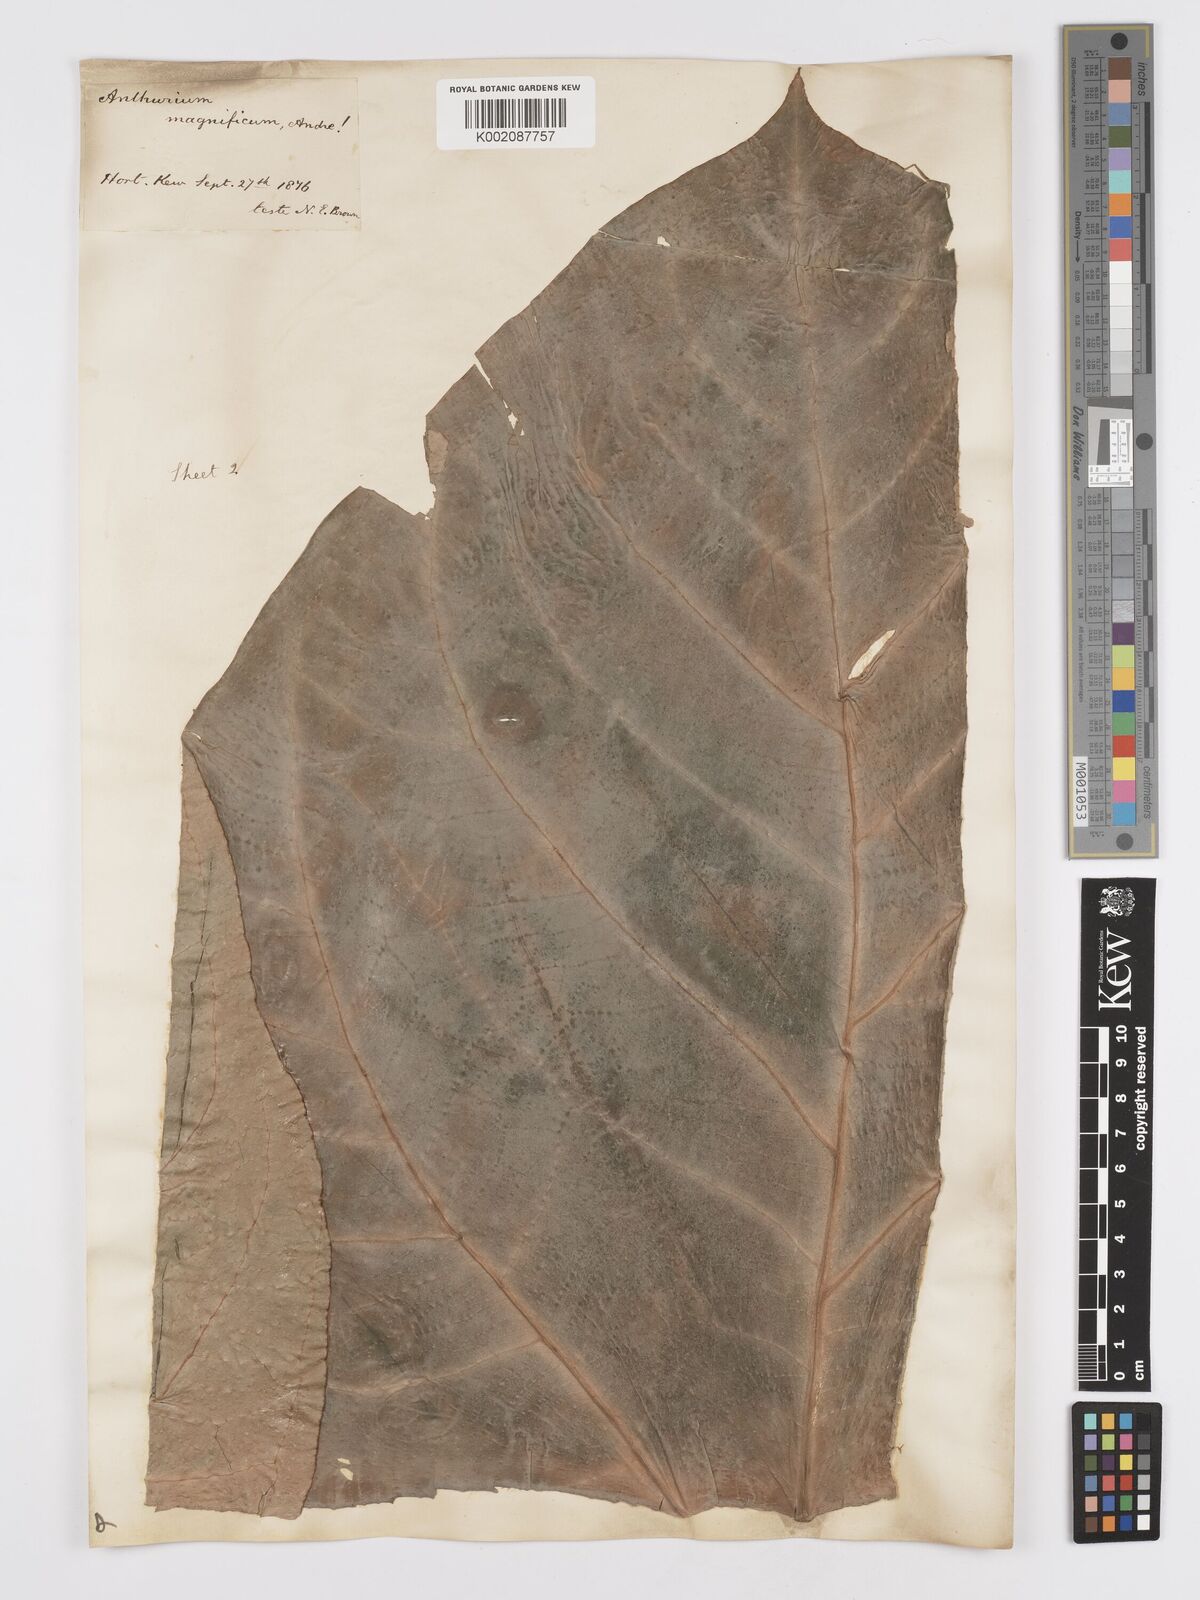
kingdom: Plantae
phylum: Tracheophyta
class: Liliopsida
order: Alismatales
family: Araceae
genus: Anthurium
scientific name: Anthurium magnificum
